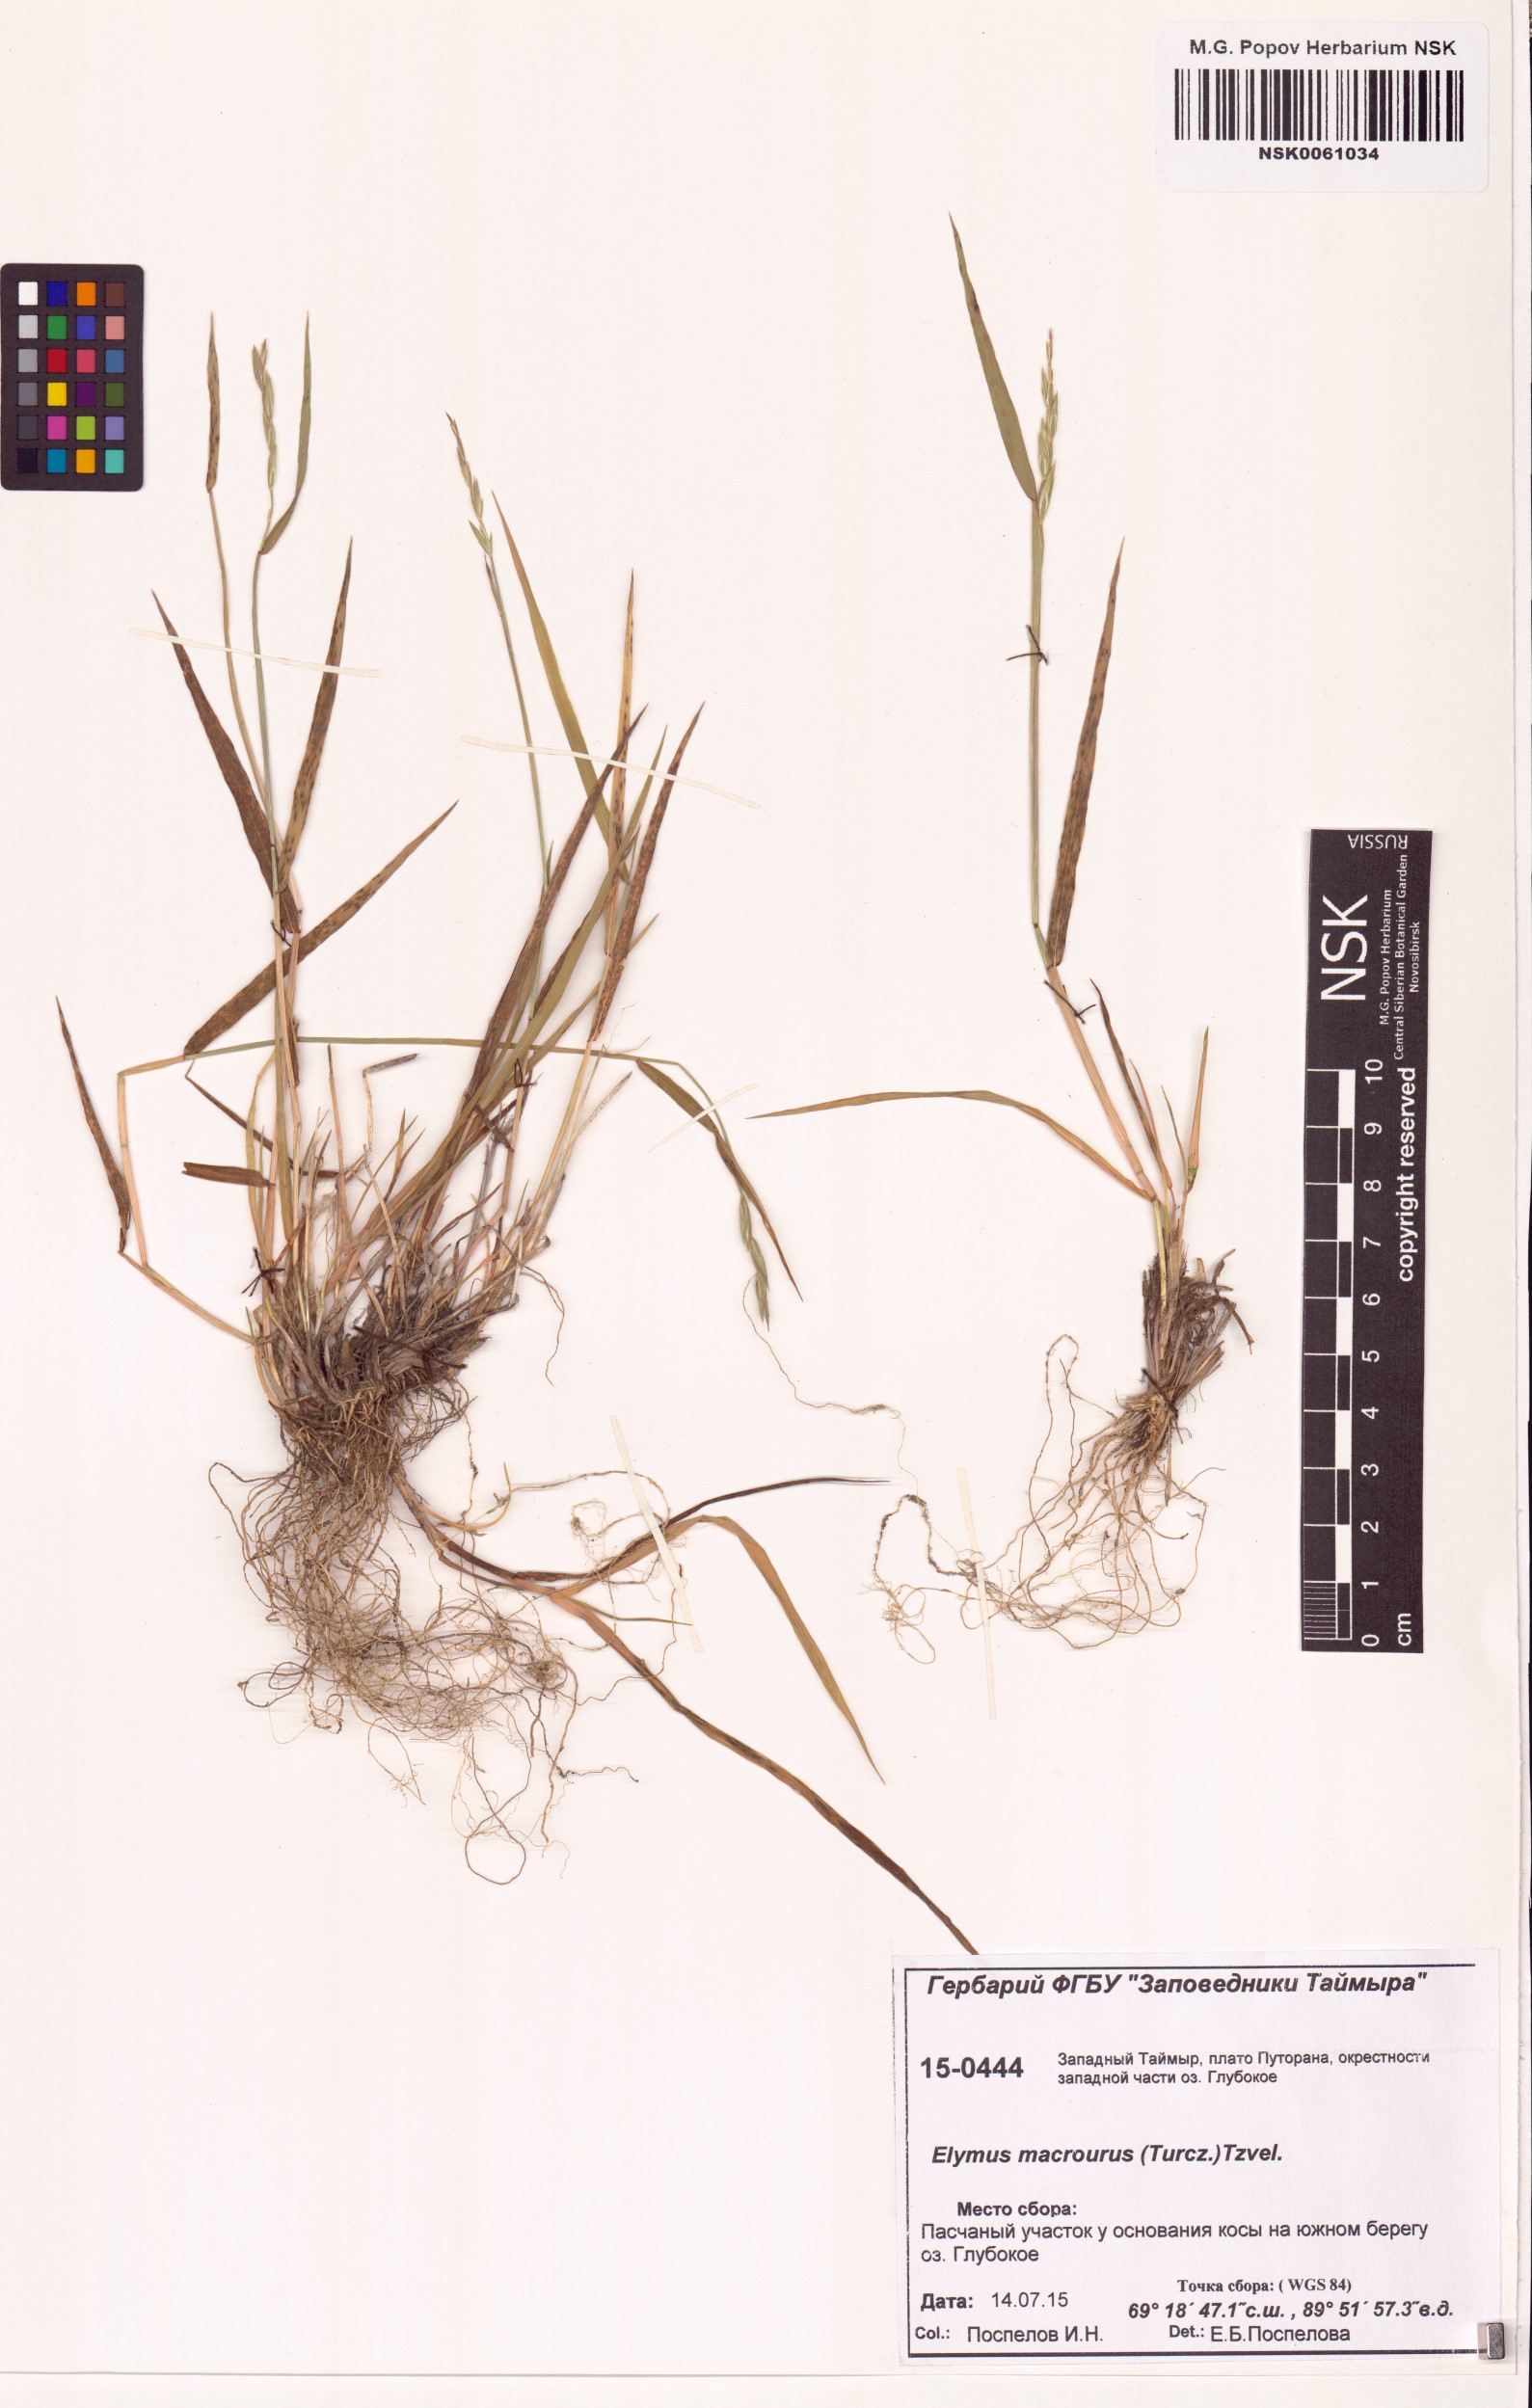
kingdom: Plantae
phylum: Tracheophyta
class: Liliopsida
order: Poales
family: Poaceae
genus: Elymus
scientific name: Elymus macrourus
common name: Northern wheatgrass
